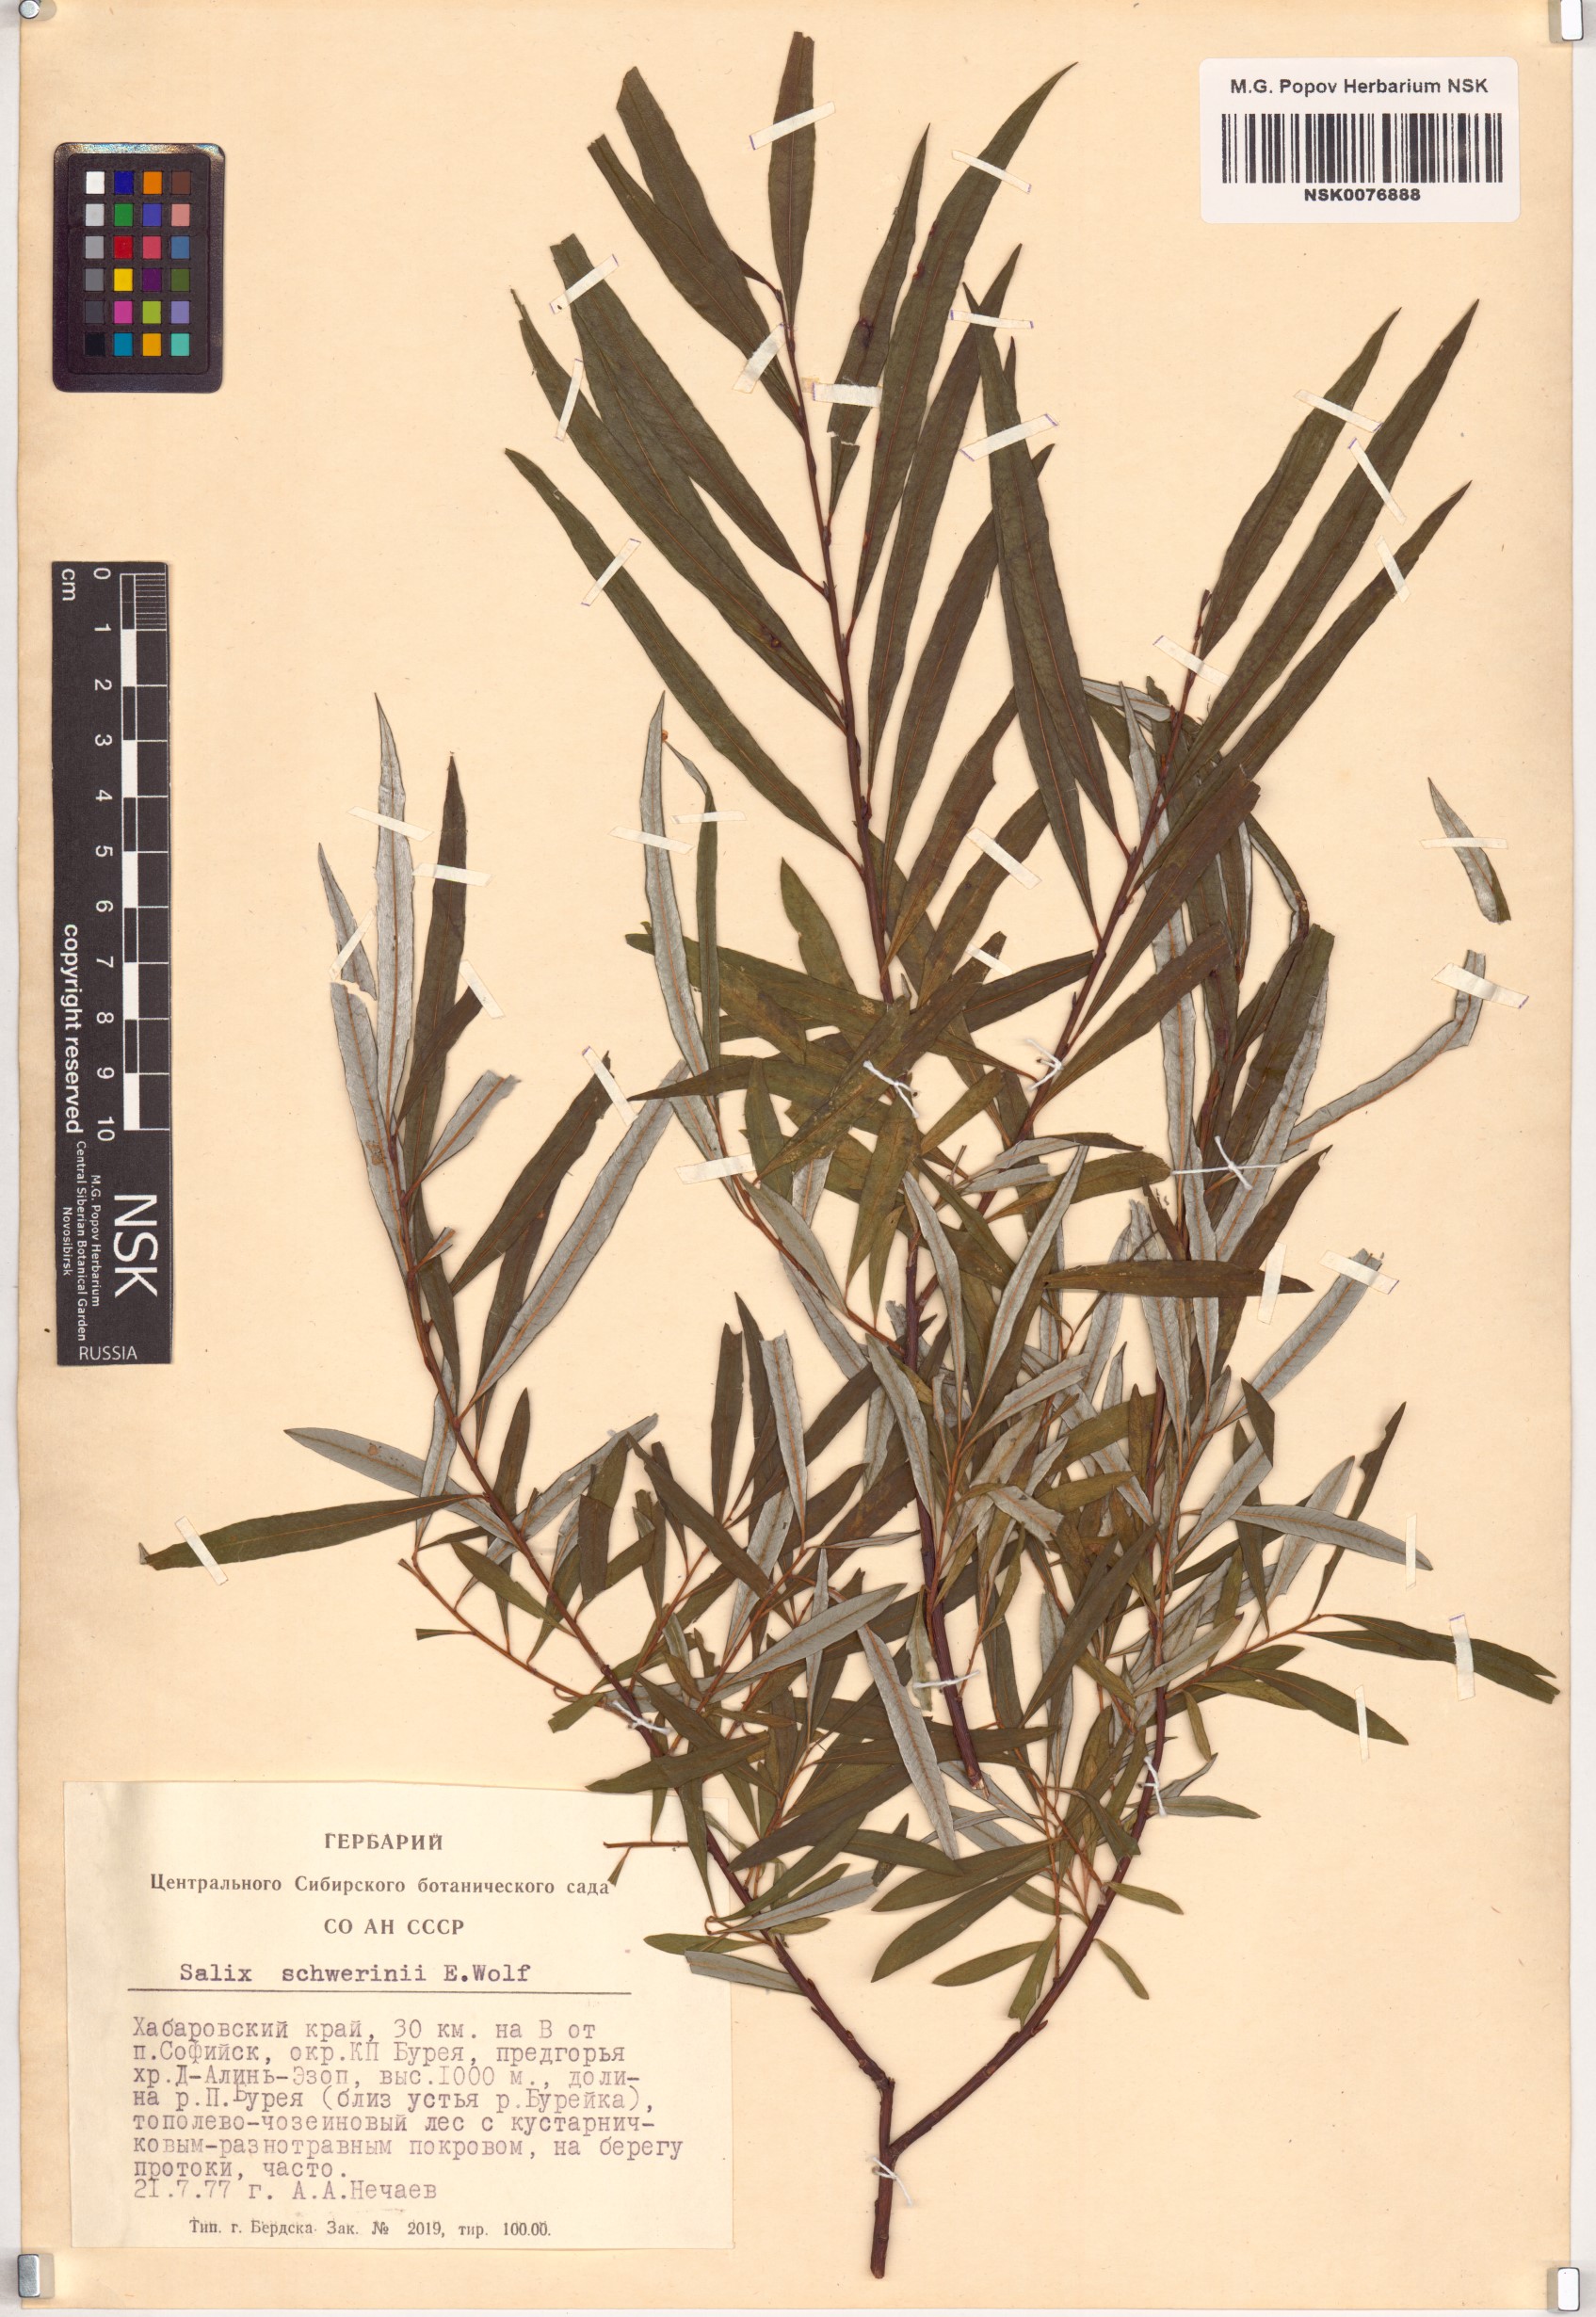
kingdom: Plantae
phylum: Tracheophyta
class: Magnoliopsida
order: Malpighiales
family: Salicaceae
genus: Salix
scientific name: Salix schwerinii
